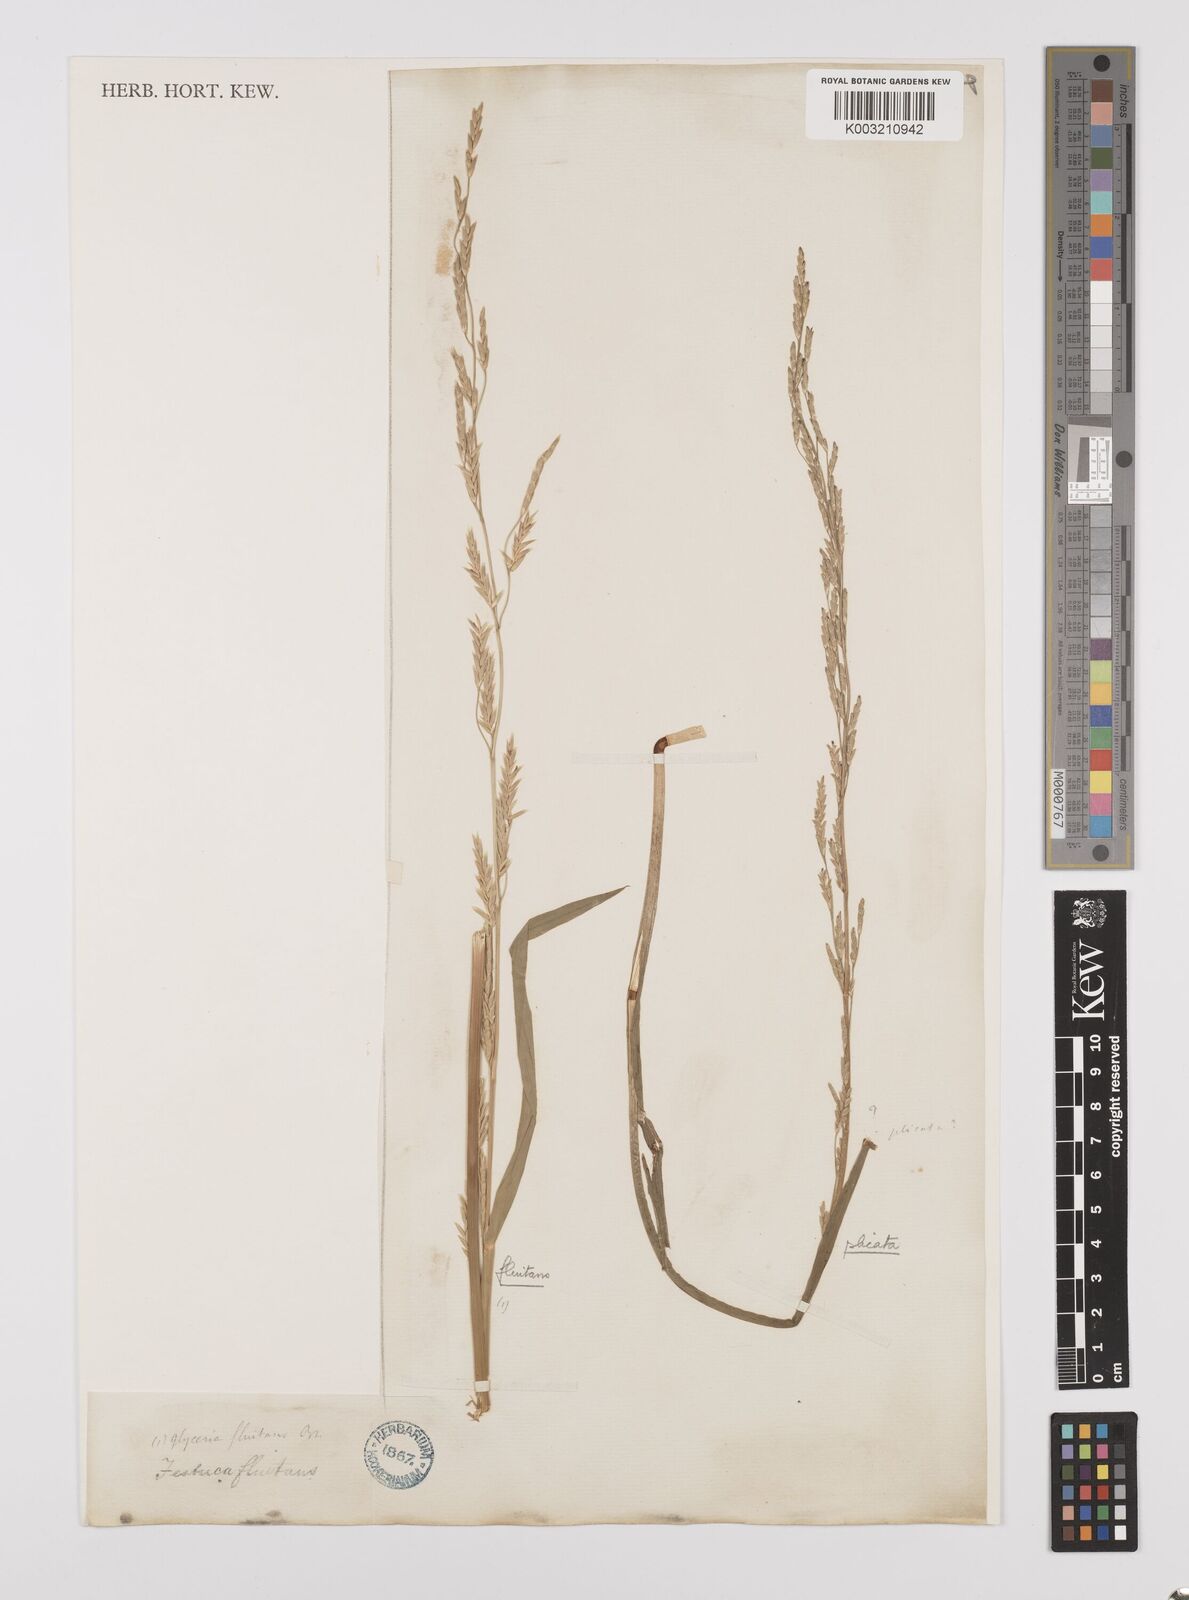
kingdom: Plantae
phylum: Tracheophyta
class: Liliopsida
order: Poales
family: Poaceae
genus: Glyceria
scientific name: Glyceria notata
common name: Plicate sweet-grass
